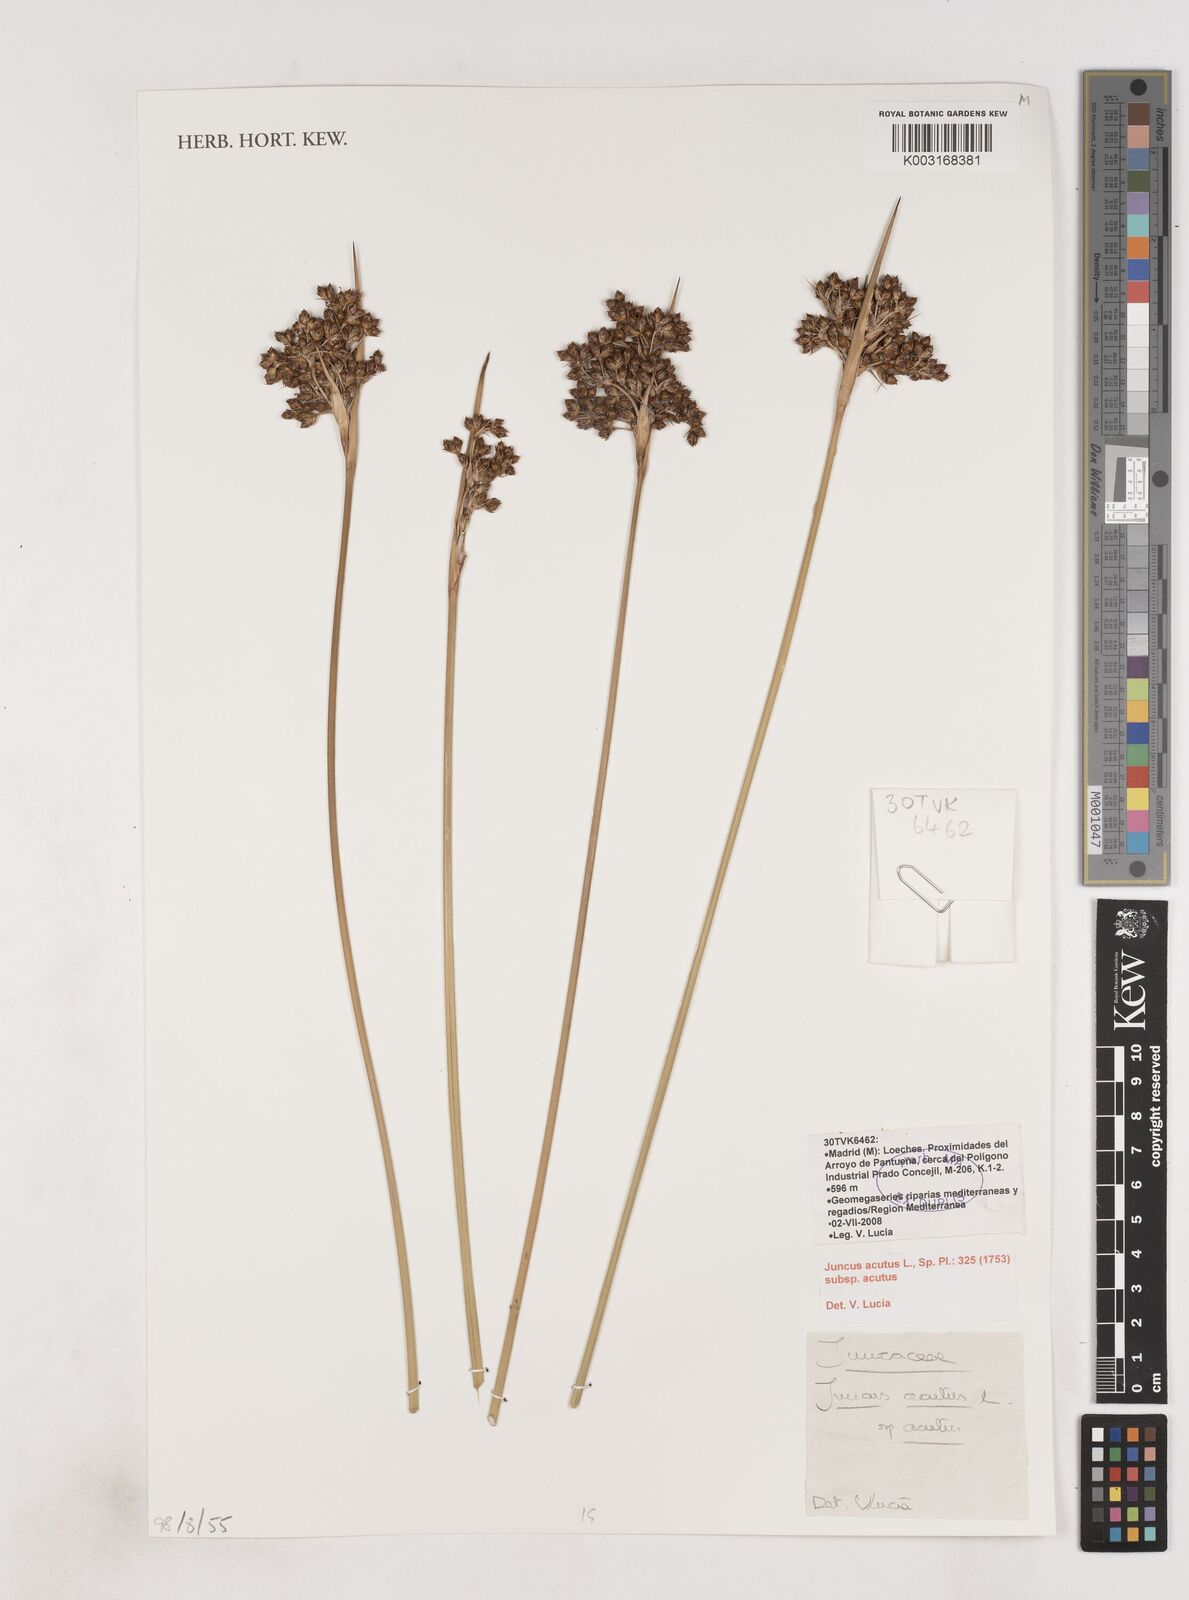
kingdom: Plantae
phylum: Tracheophyta
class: Liliopsida
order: Poales
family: Juncaceae
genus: Juncus
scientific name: Juncus acutus
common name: Sharp rush
